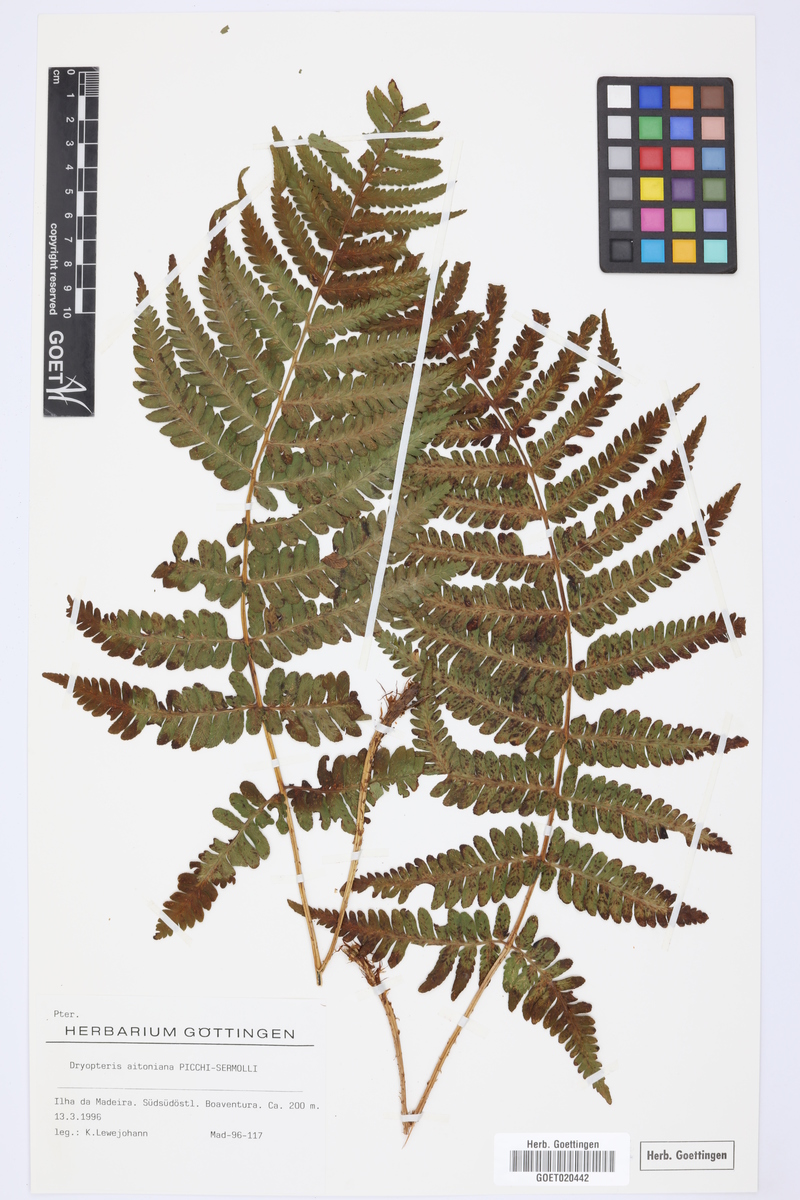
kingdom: Plantae
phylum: Tracheophyta
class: Polypodiopsida
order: Polypodiales
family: Dryopteridaceae
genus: Dryopteris
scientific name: Dryopteris aitoniana
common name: Aiton's buckler-fern
